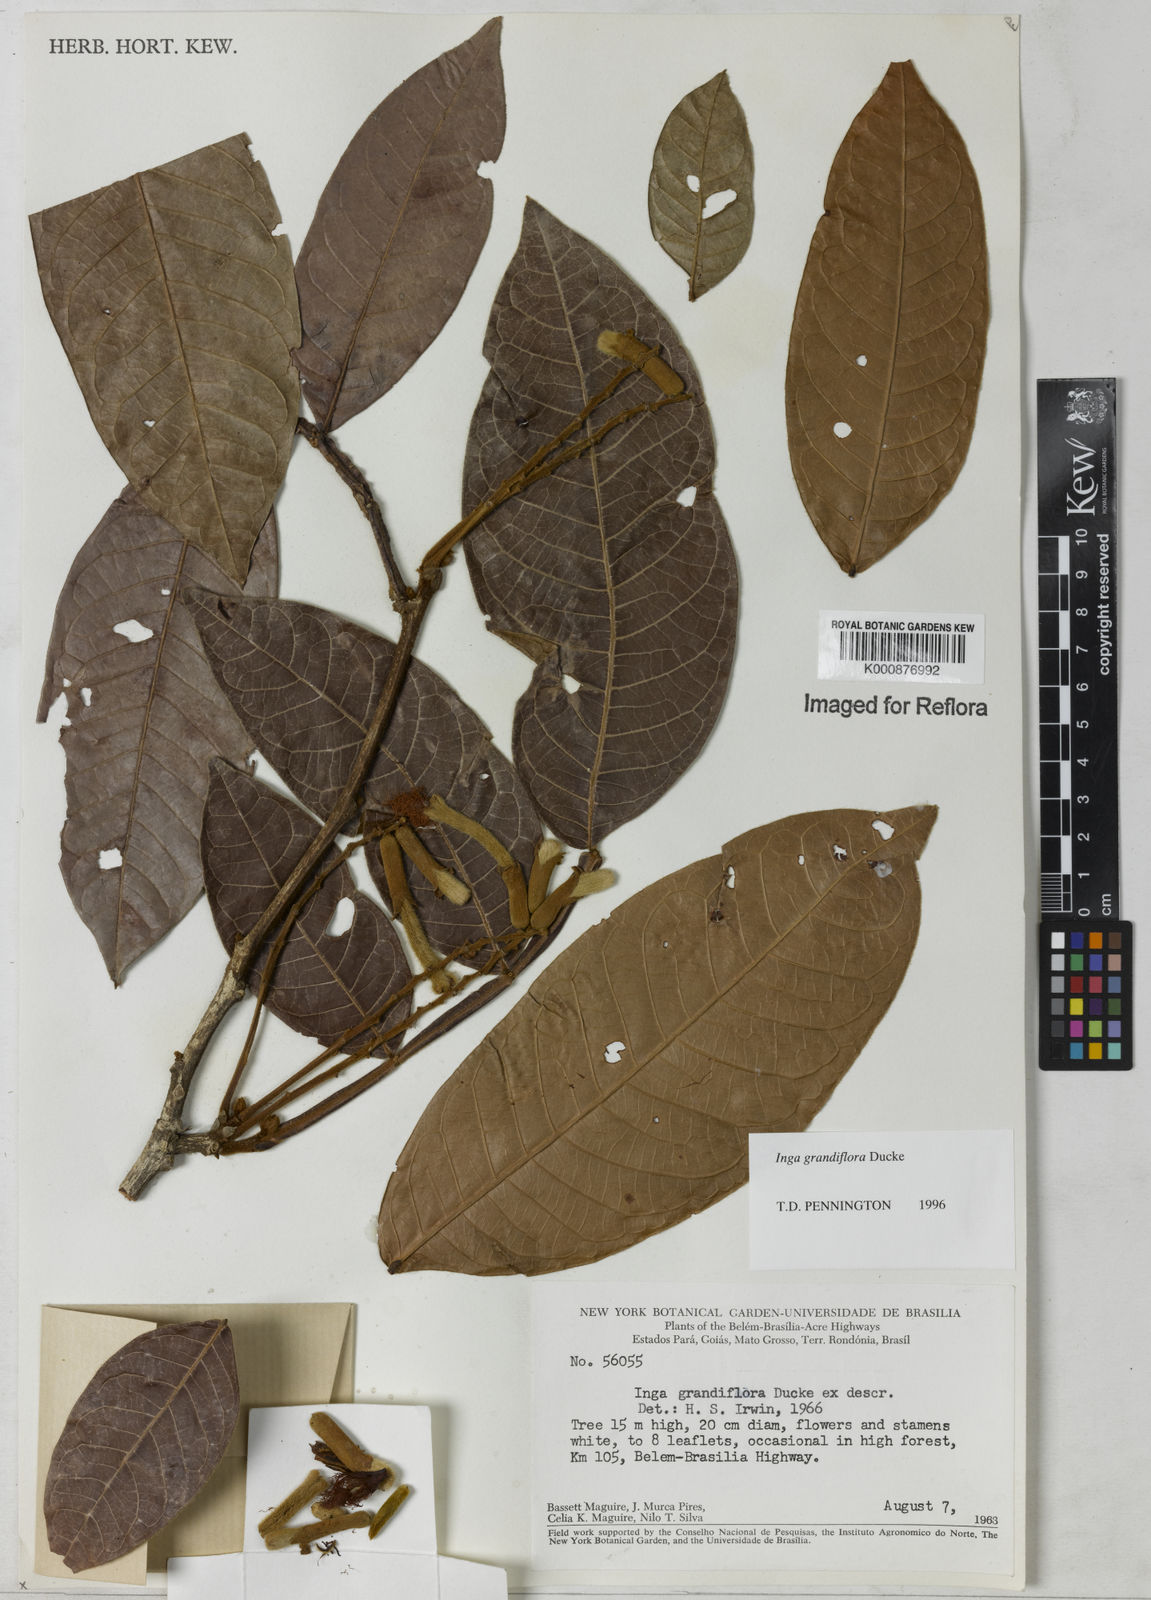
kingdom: Plantae
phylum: Tracheophyta
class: Magnoliopsida
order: Fabales
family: Fabaceae
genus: Inga
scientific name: Inga crassiflora
